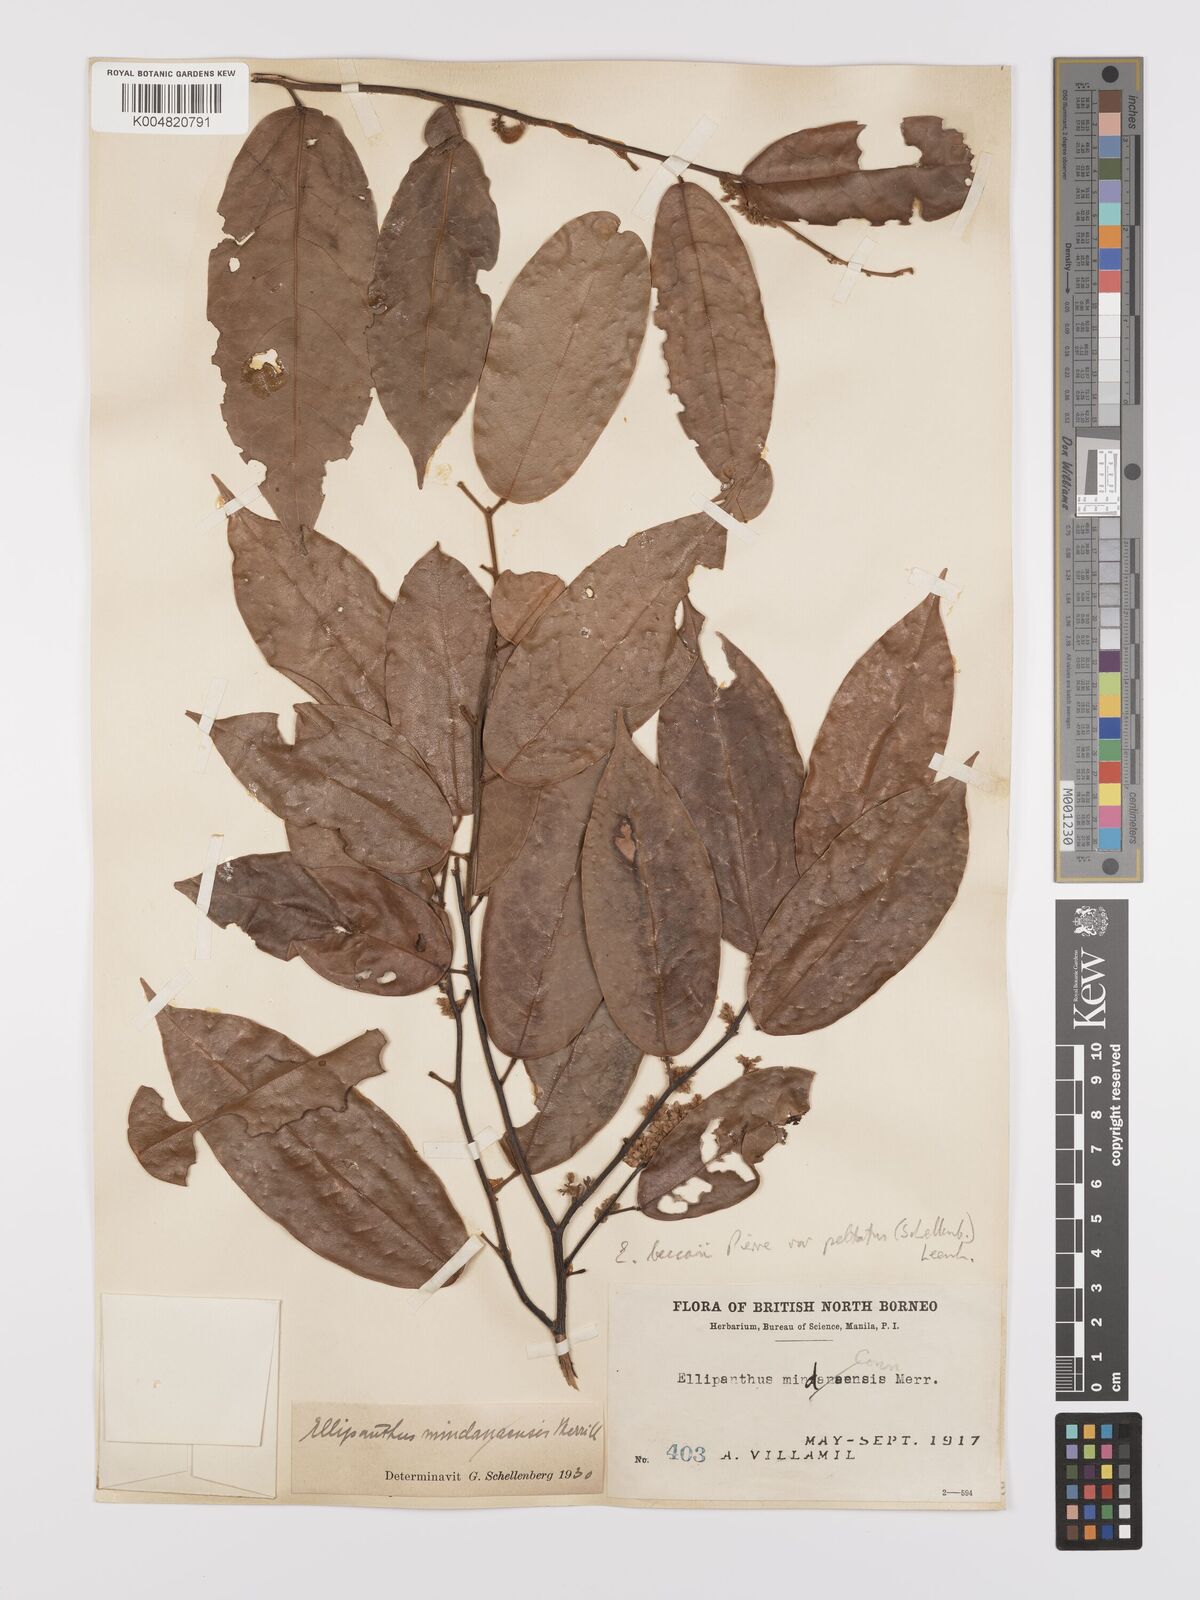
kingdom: Plantae
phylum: Tracheophyta
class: Magnoliopsida
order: Oxalidales
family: Connaraceae
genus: Ellipanthus
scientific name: Ellipanthus beccarii
